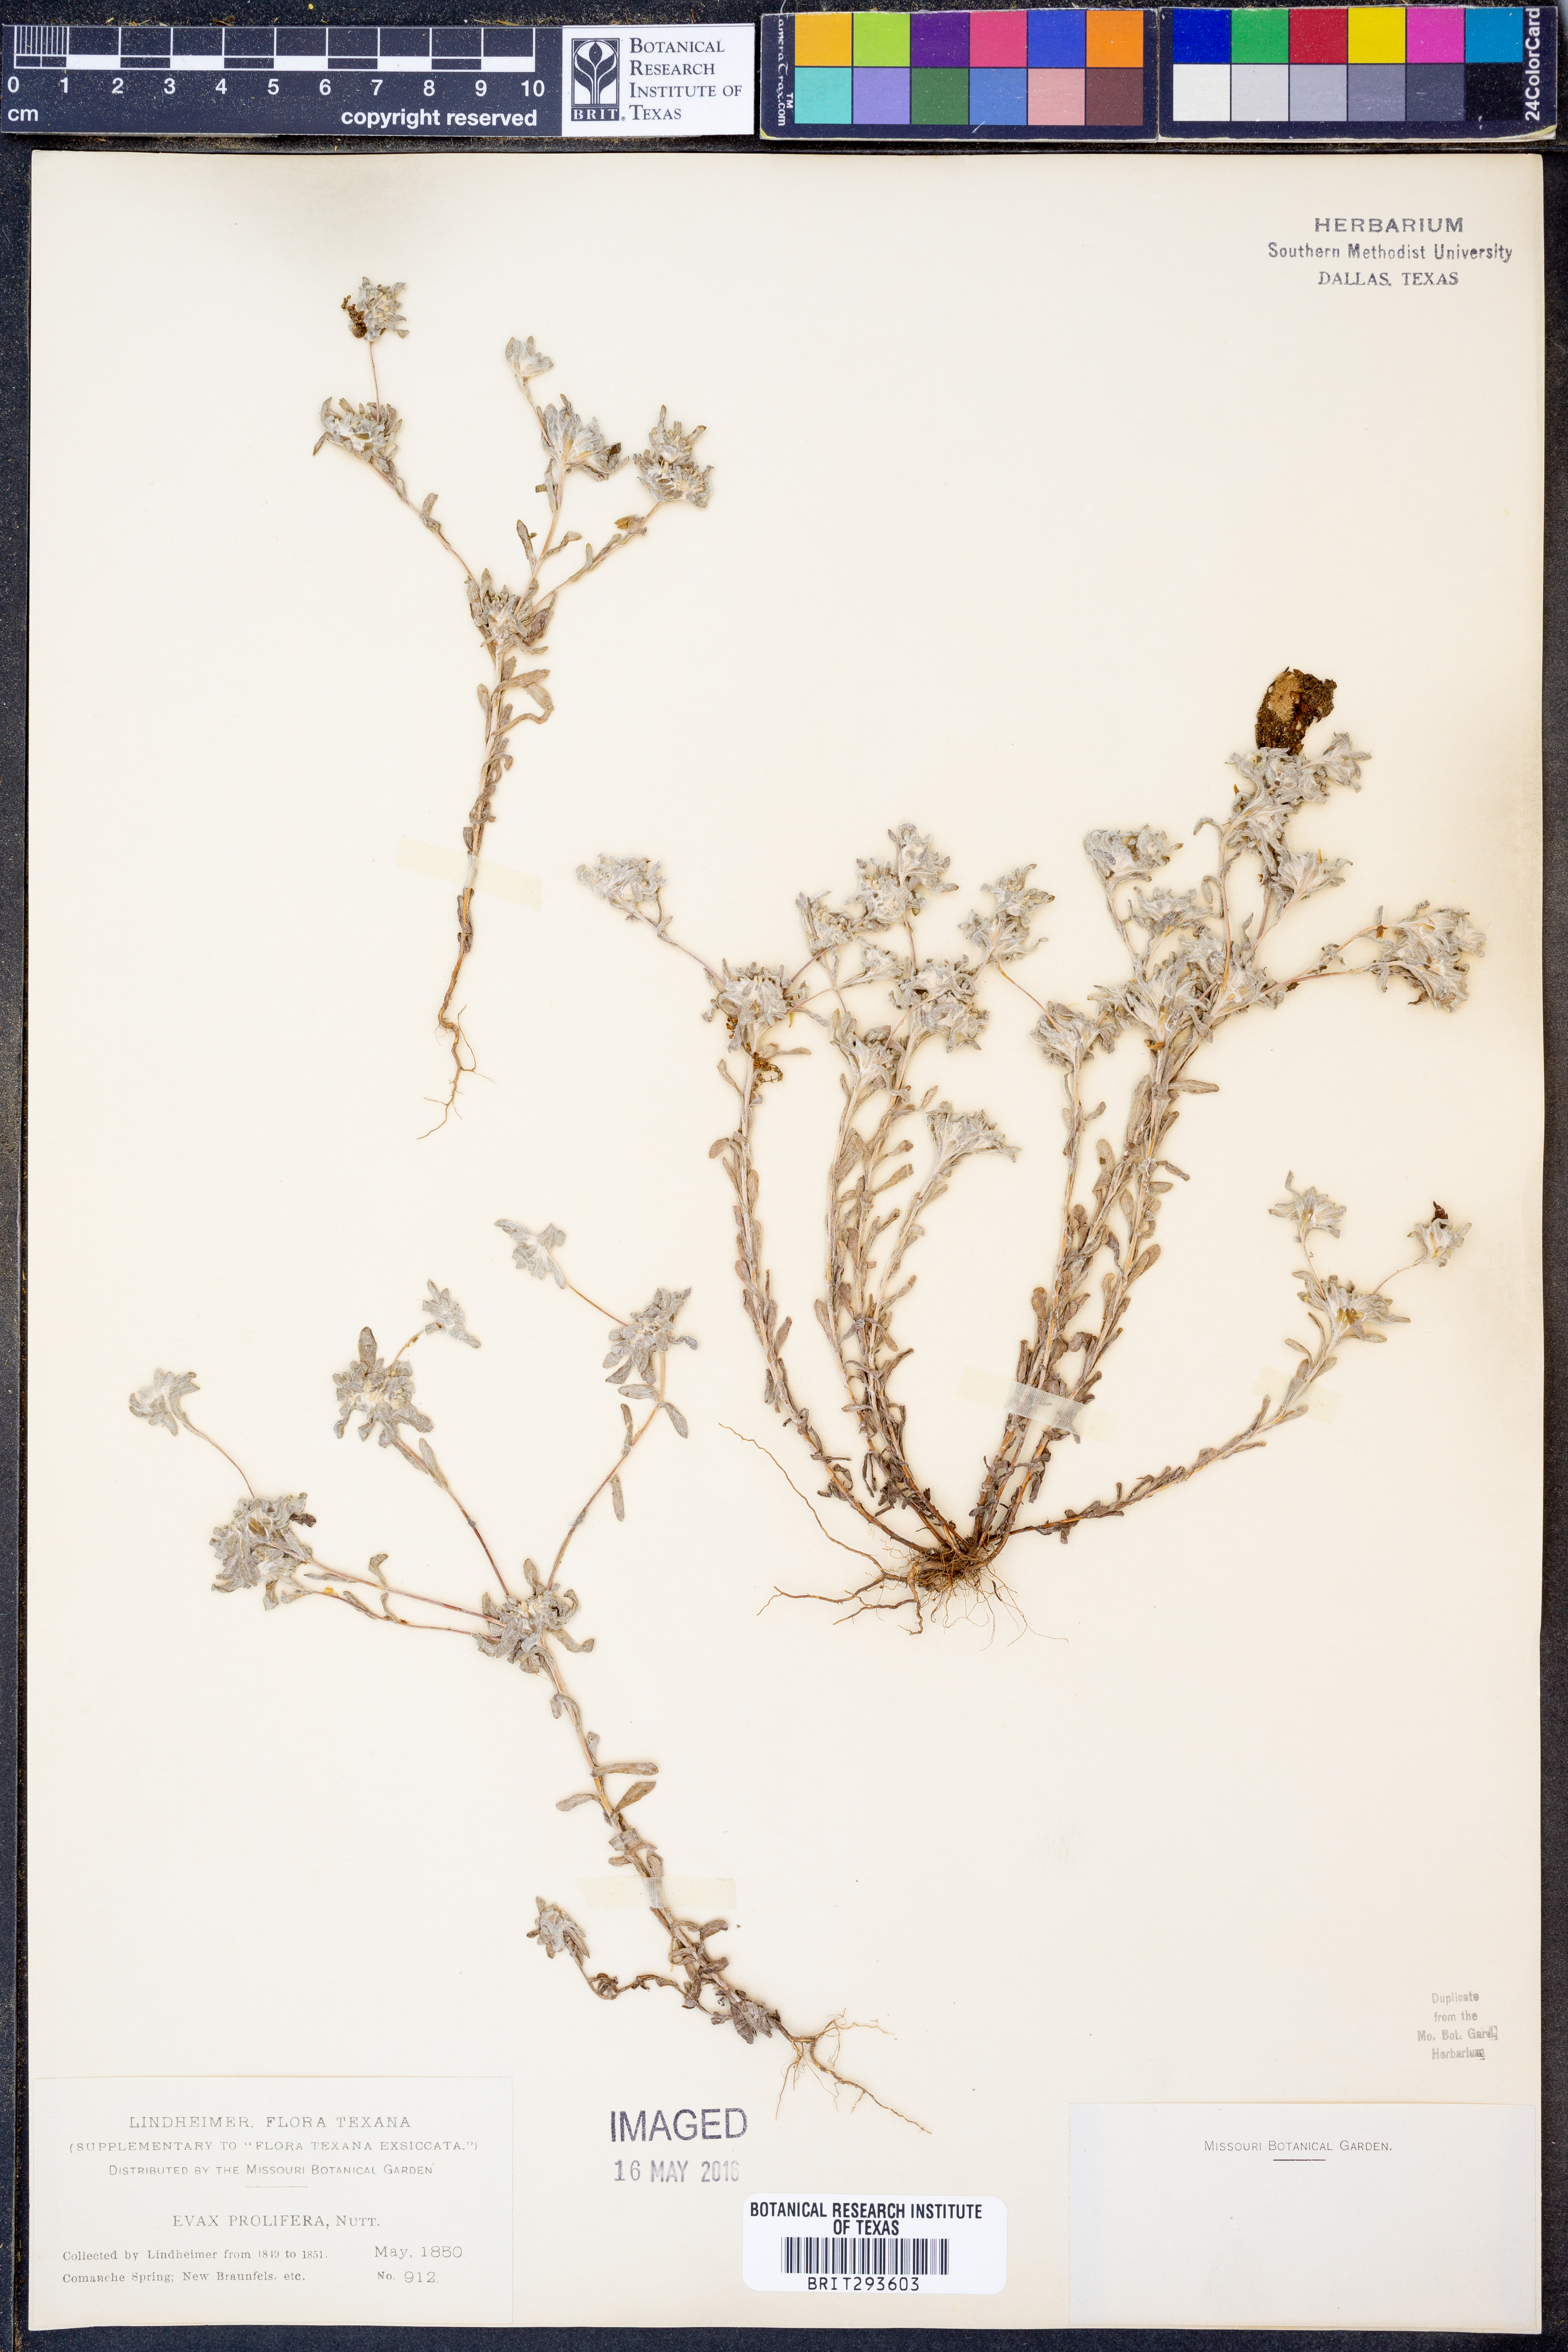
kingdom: Plantae
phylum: Tracheophyta
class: Magnoliopsida
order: Asterales
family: Asteraceae
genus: Diaperia
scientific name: Diaperia prolifera
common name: Big-head rabbit-tobacco
